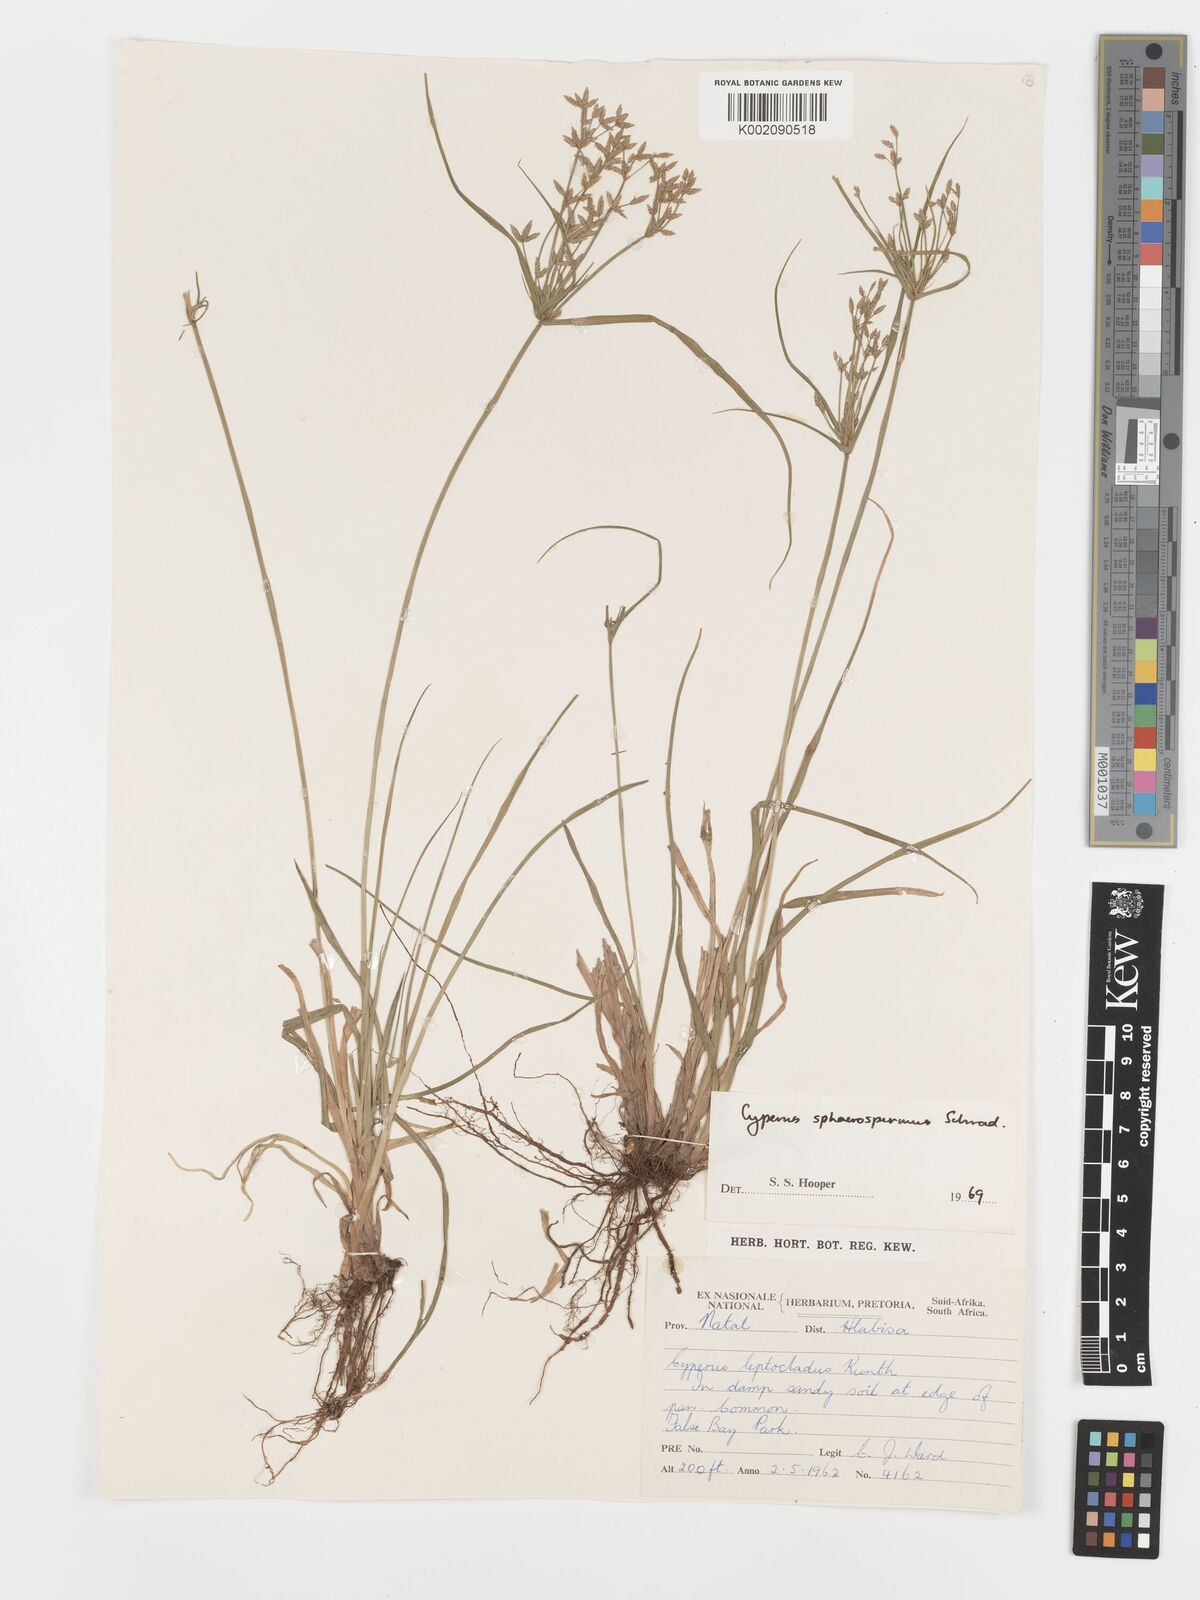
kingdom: Plantae
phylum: Tracheophyta
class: Liliopsida
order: Poales
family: Cyperaceae
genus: Cyperus
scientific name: Cyperus sphaerospermus
